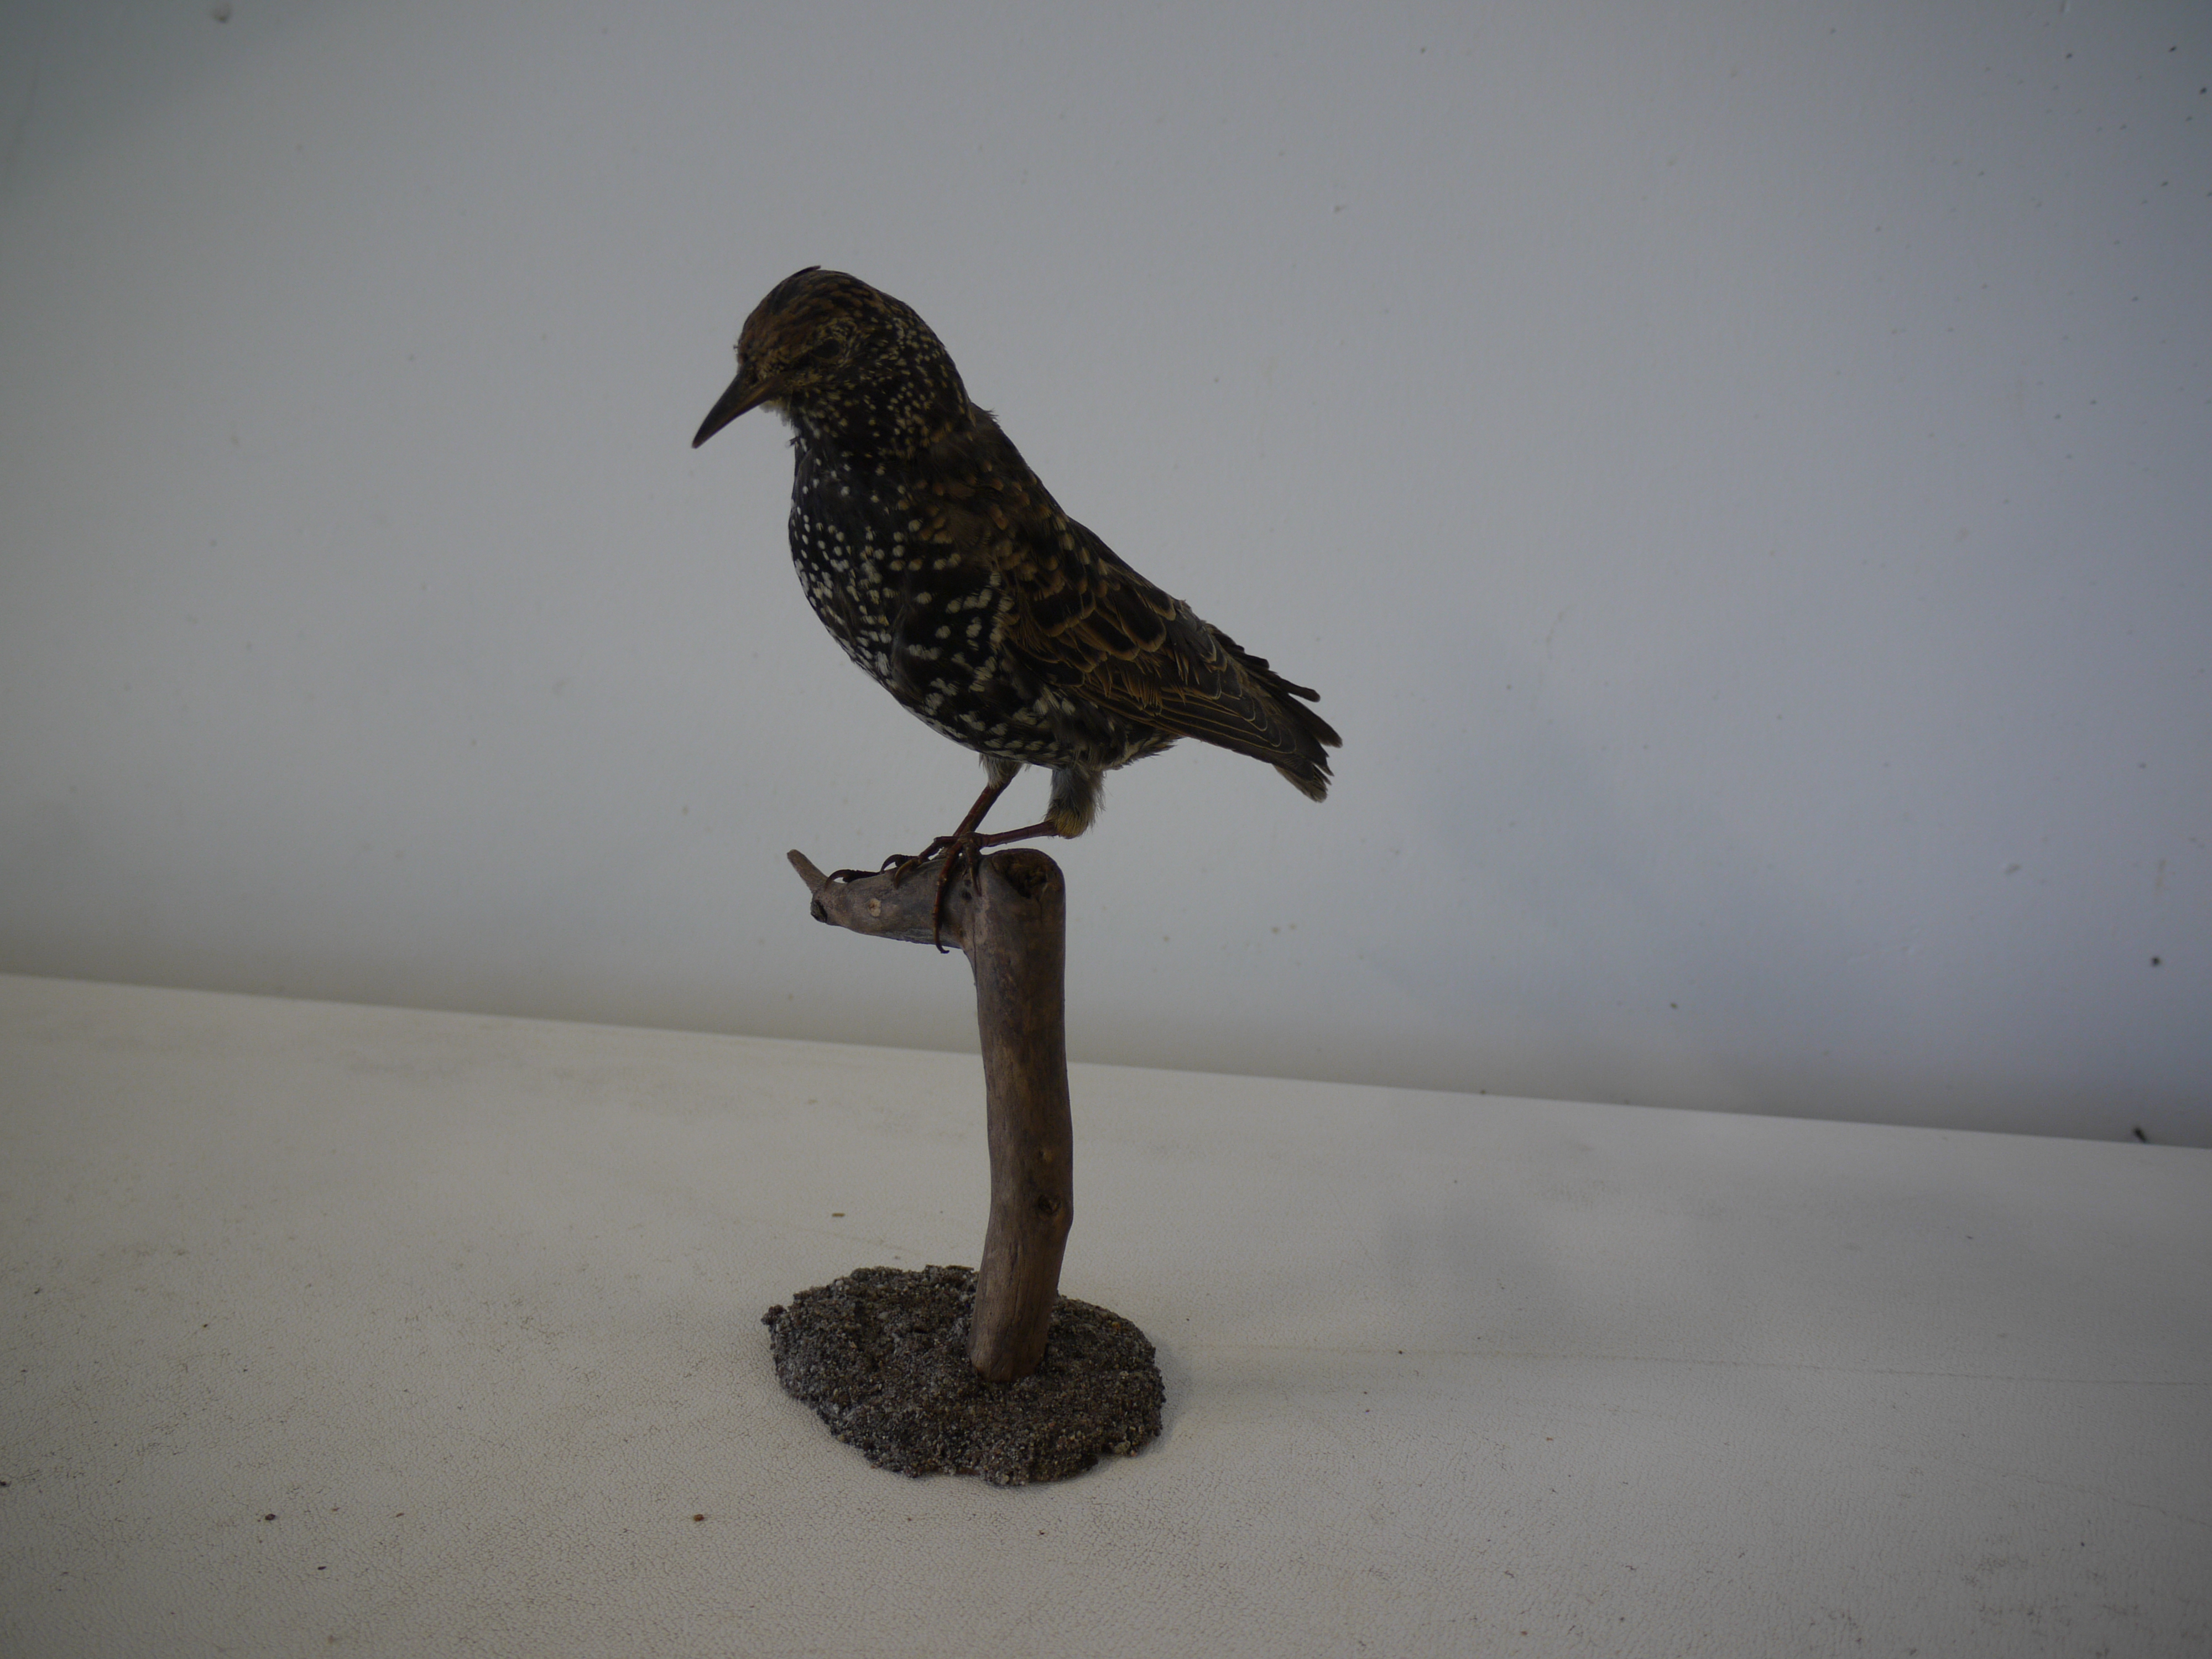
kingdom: Animalia
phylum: Chordata
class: Aves
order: Passeriformes
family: Sturnidae
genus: Sturnus
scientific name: Sturnus vulgaris
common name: Common starling
